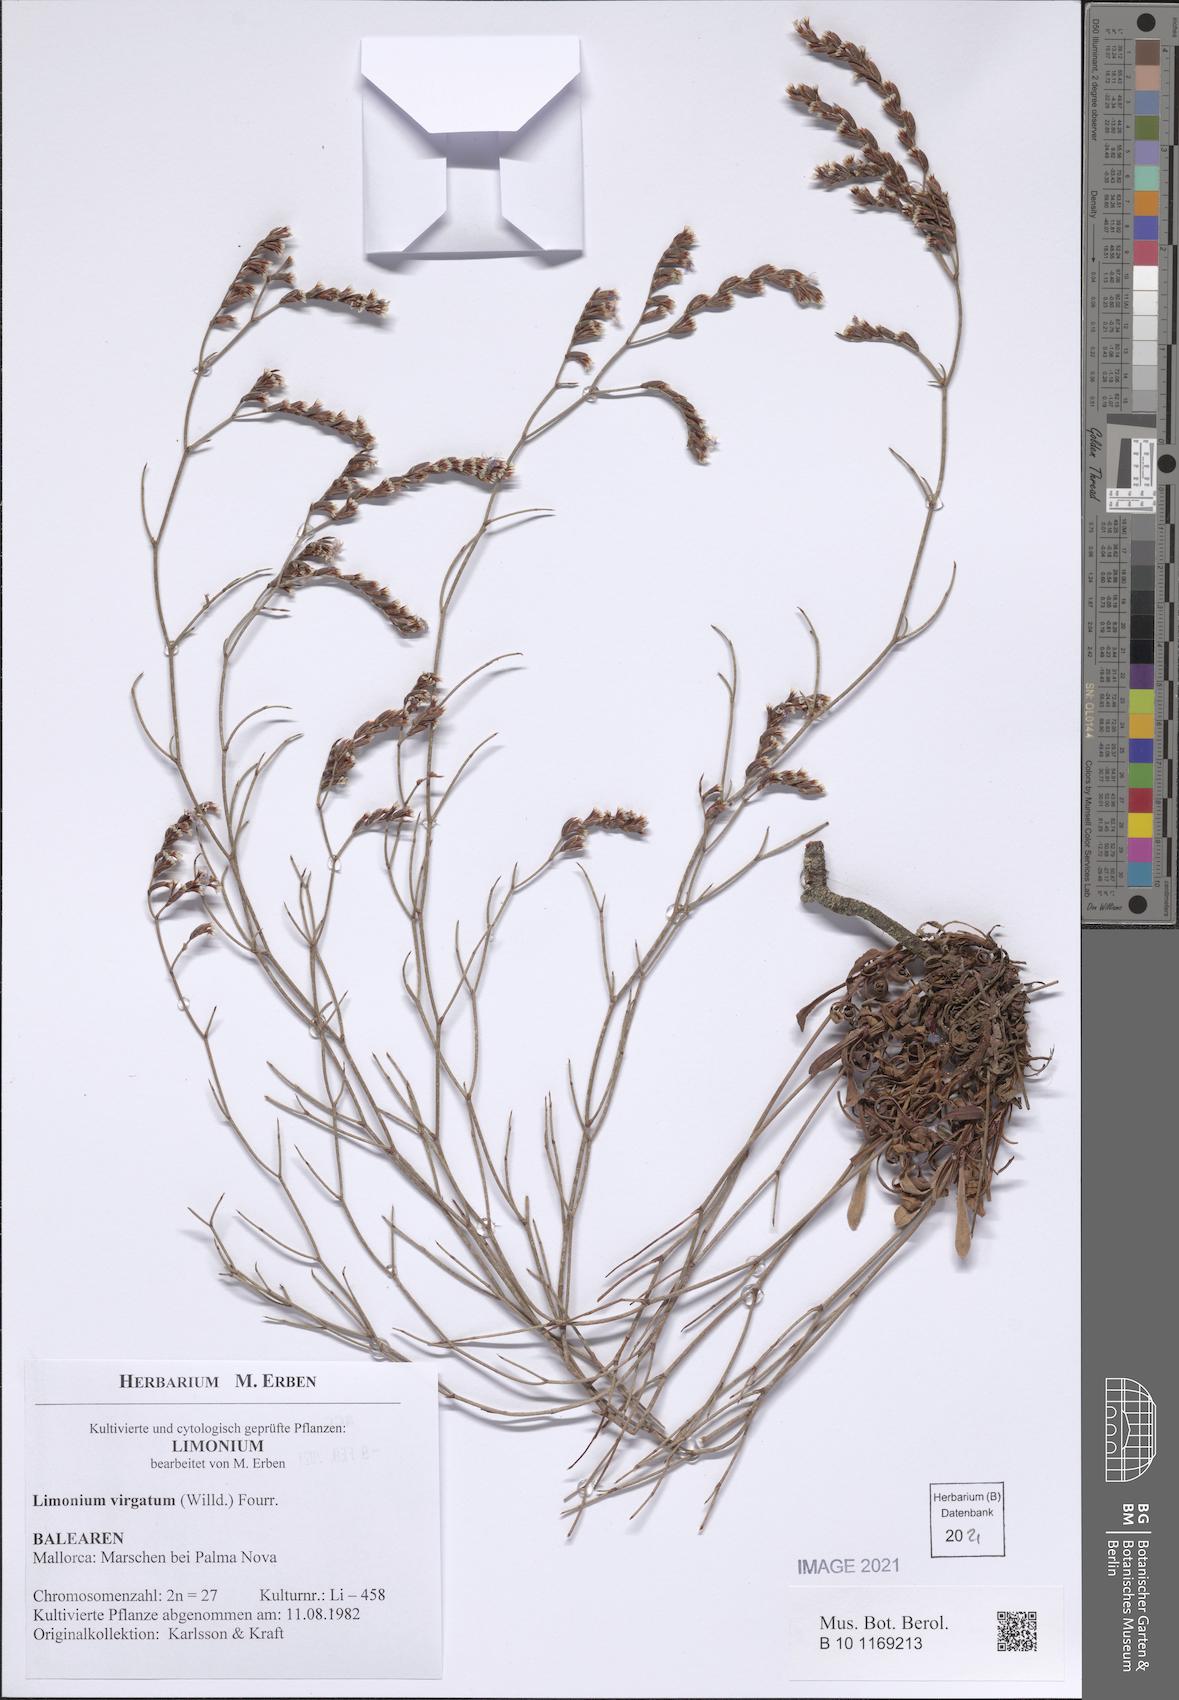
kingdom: Plantae
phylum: Tracheophyta
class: Magnoliopsida
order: Caryophyllales
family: Plumbaginaceae
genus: Limonium
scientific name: Limonium virgatum
